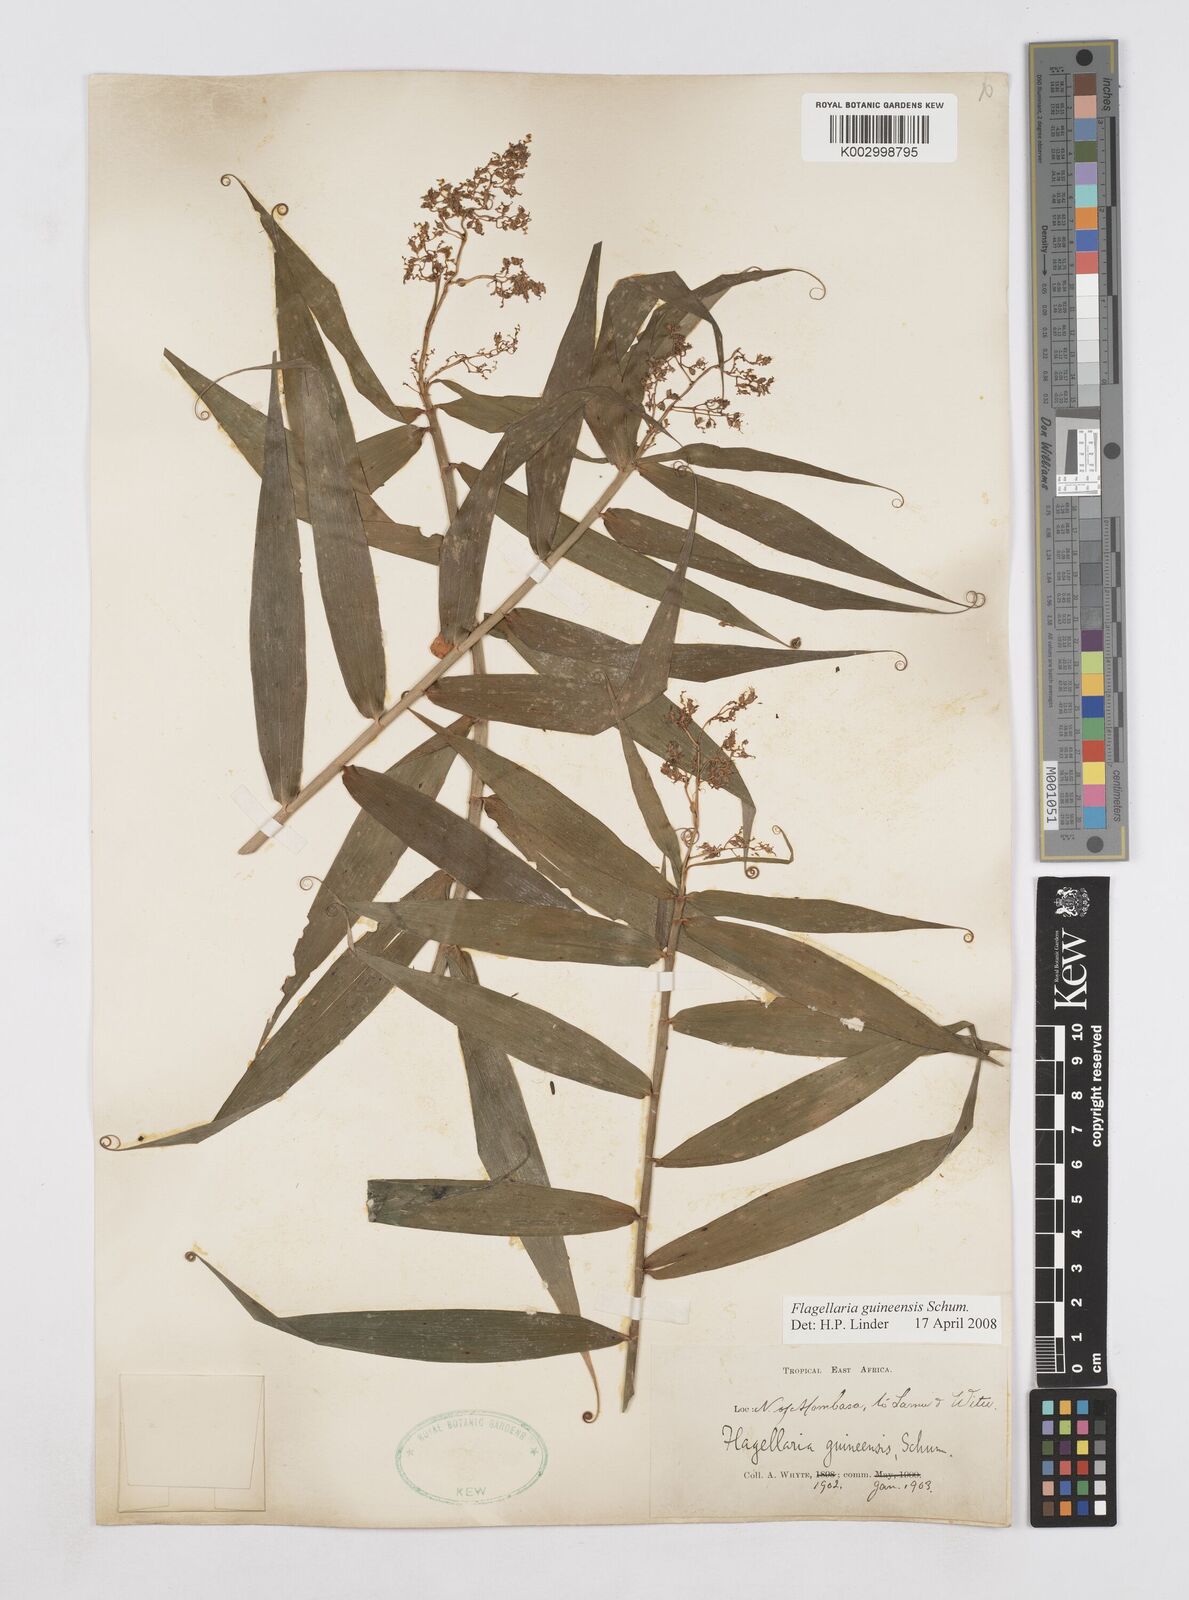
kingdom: Plantae
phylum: Tracheophyta
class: Liliopsida
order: Poales
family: Flagellariaceae
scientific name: Flagellariaceae
